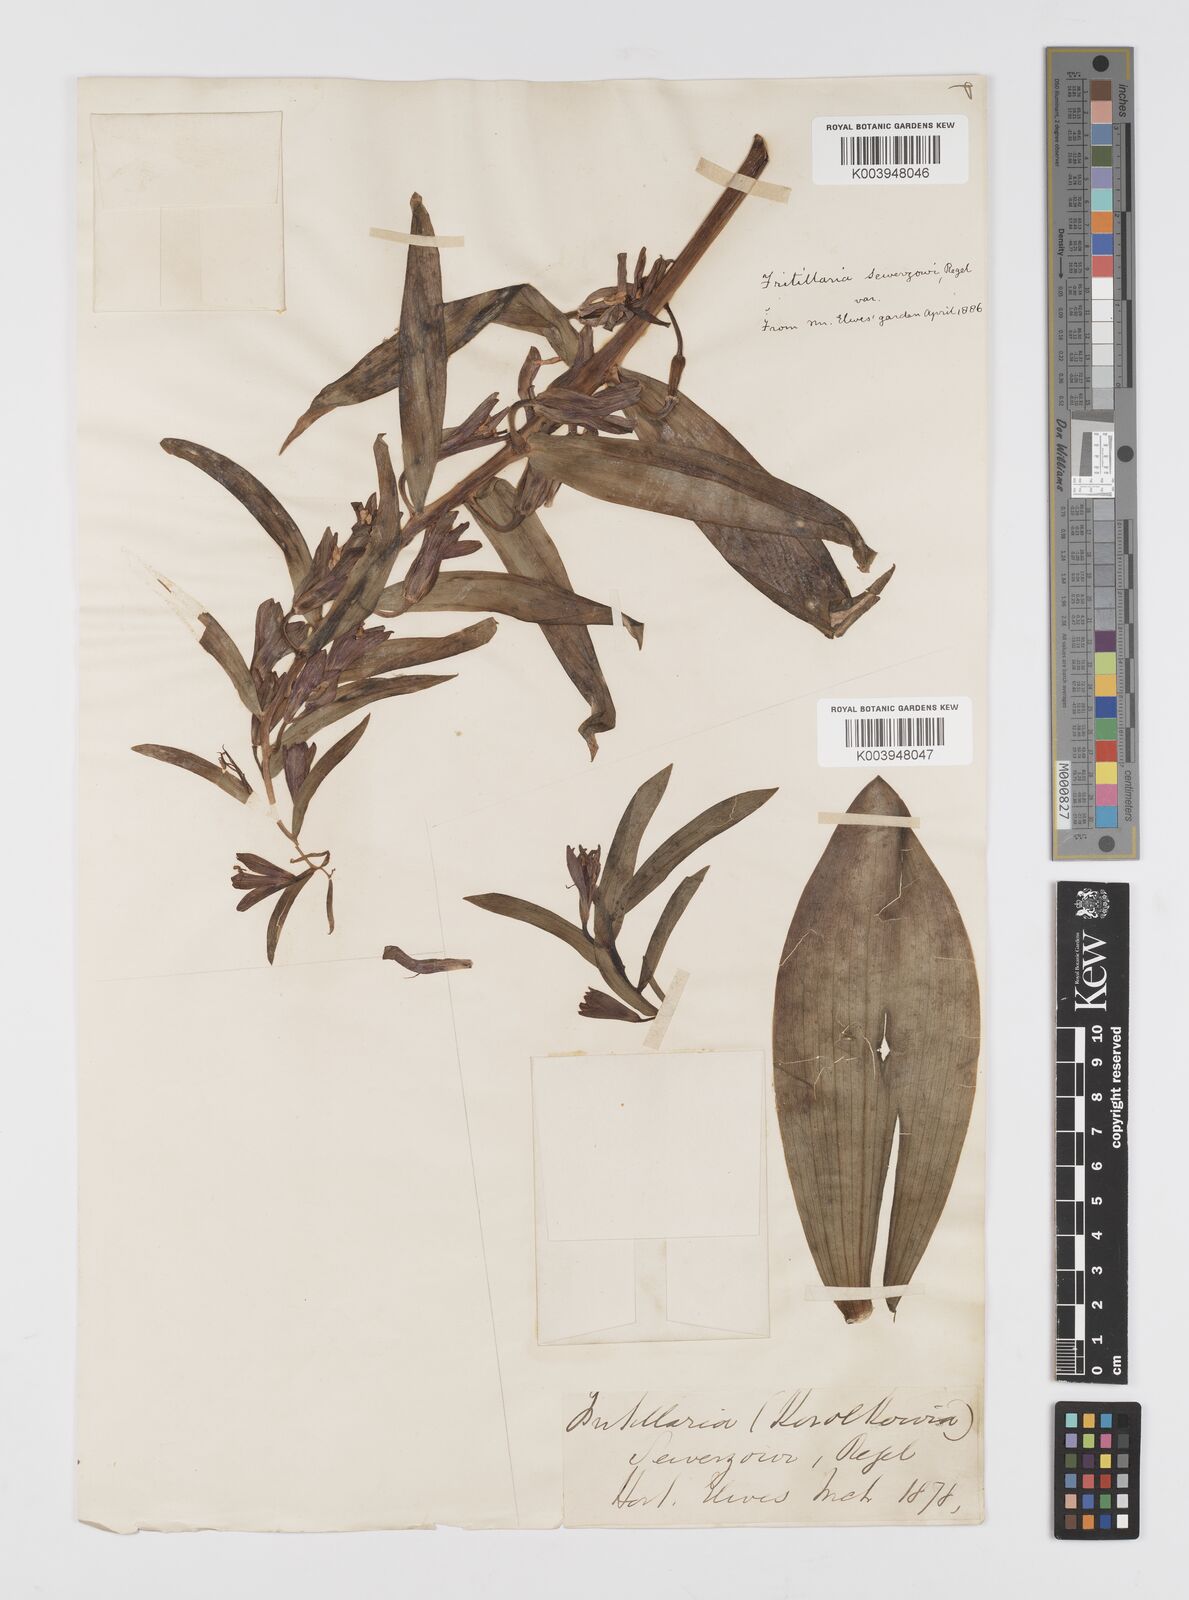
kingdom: Plantae
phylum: Tracheophyta
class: Liliopsida
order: Liliales
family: Liliaceae
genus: Fritillaria
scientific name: Fritillaria sewerzowii
